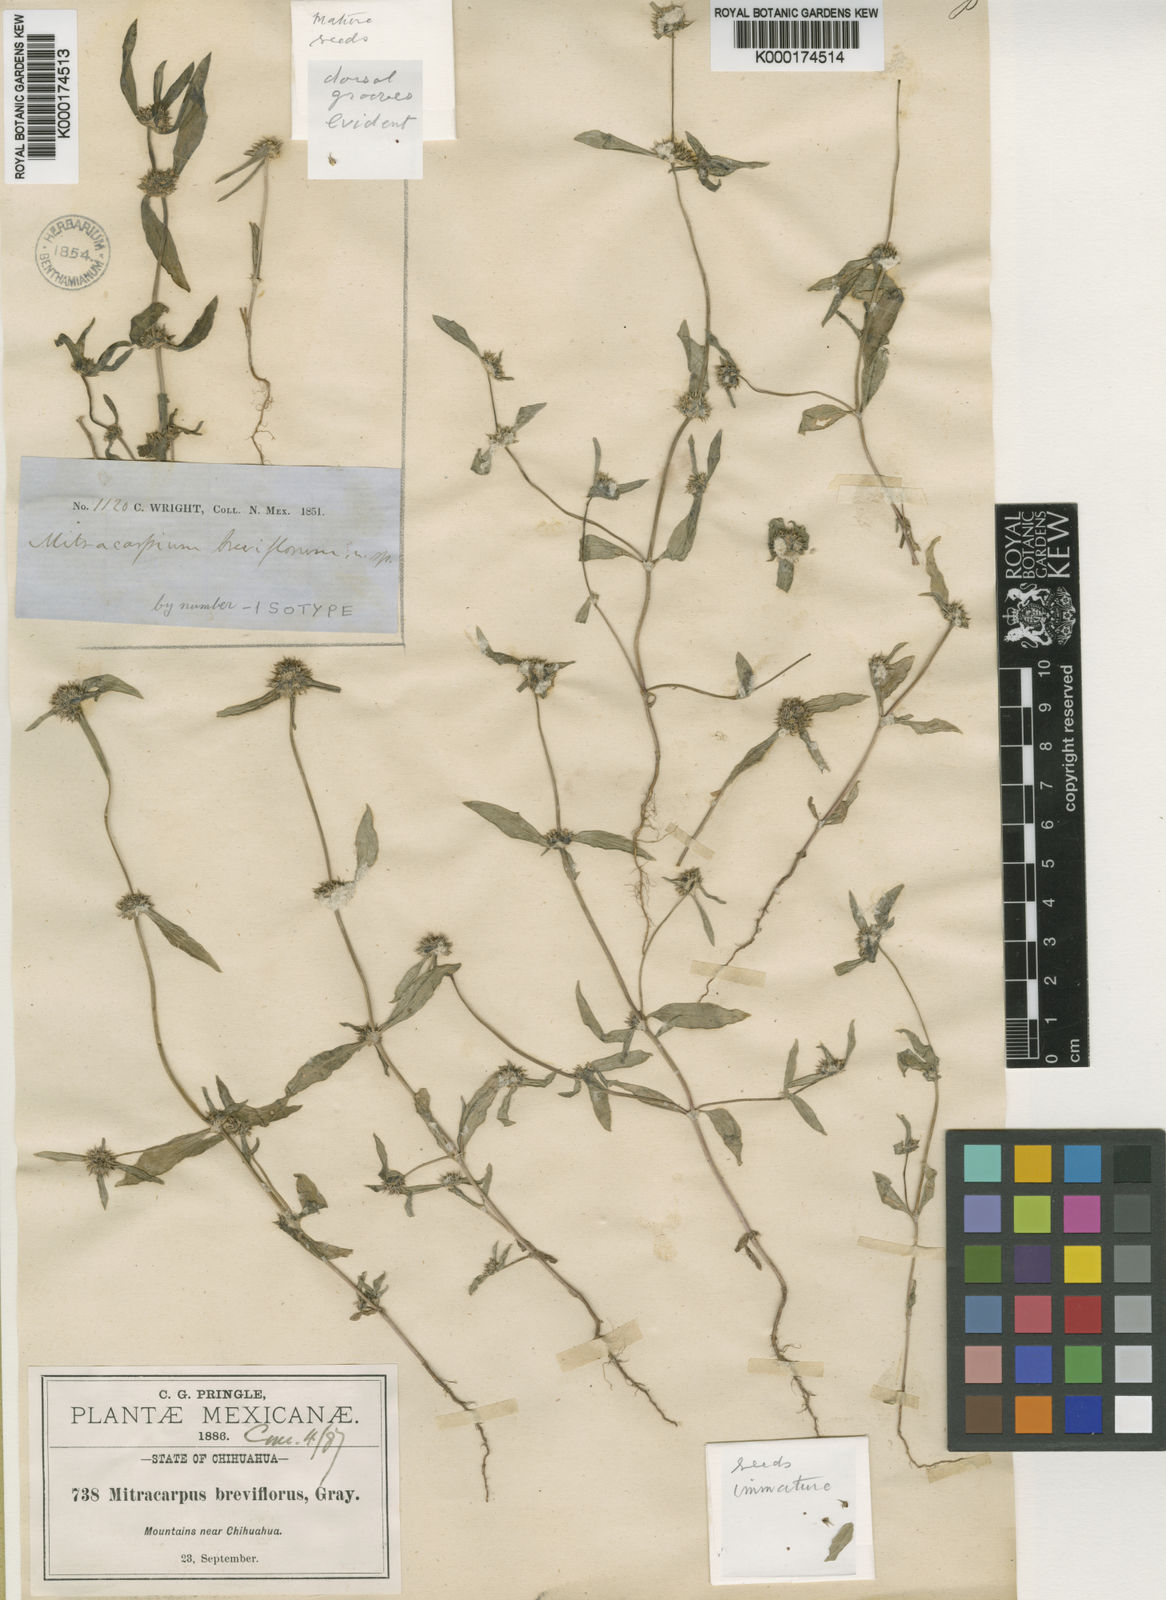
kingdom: Plantae
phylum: Tracheophyta
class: Magnoliopsida
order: Gentianales
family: Rubiaceae
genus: Mitracarpus
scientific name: Mitracarpus hirtus
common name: Tropical girdlepod
